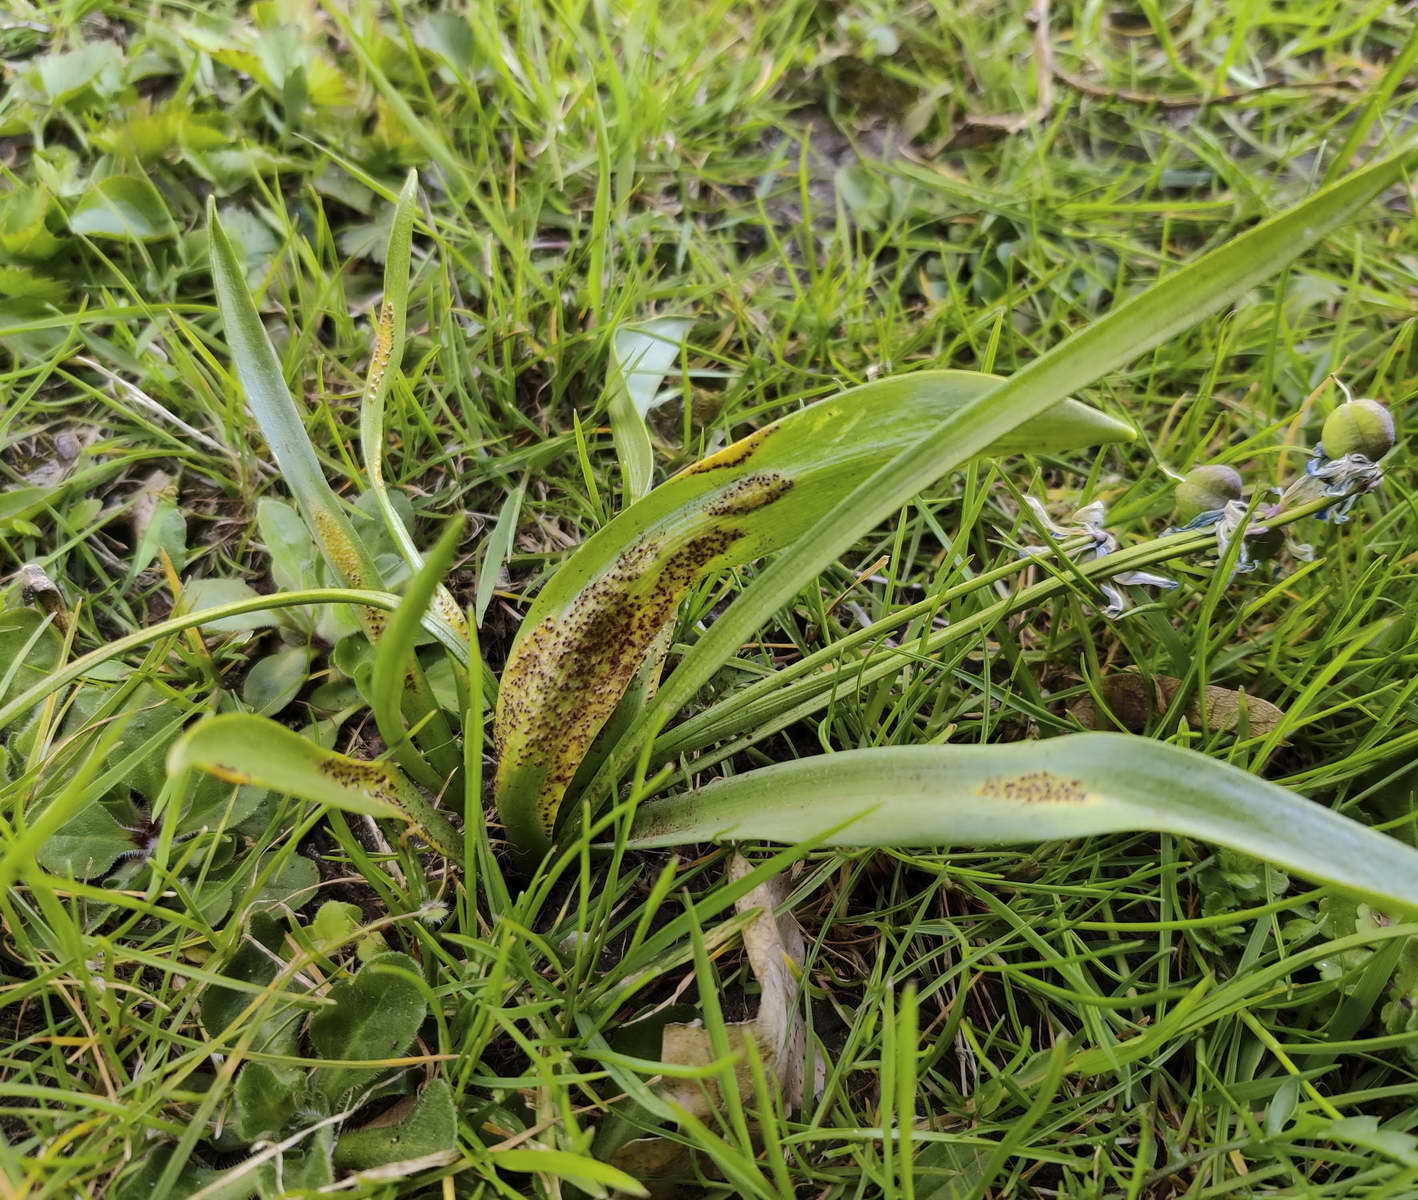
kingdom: Fungi
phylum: Basidiomycota
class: Pucciniomycetes
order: Pucciniales
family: Pucciniaceae
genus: Puccinia
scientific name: Puccinia scillae
